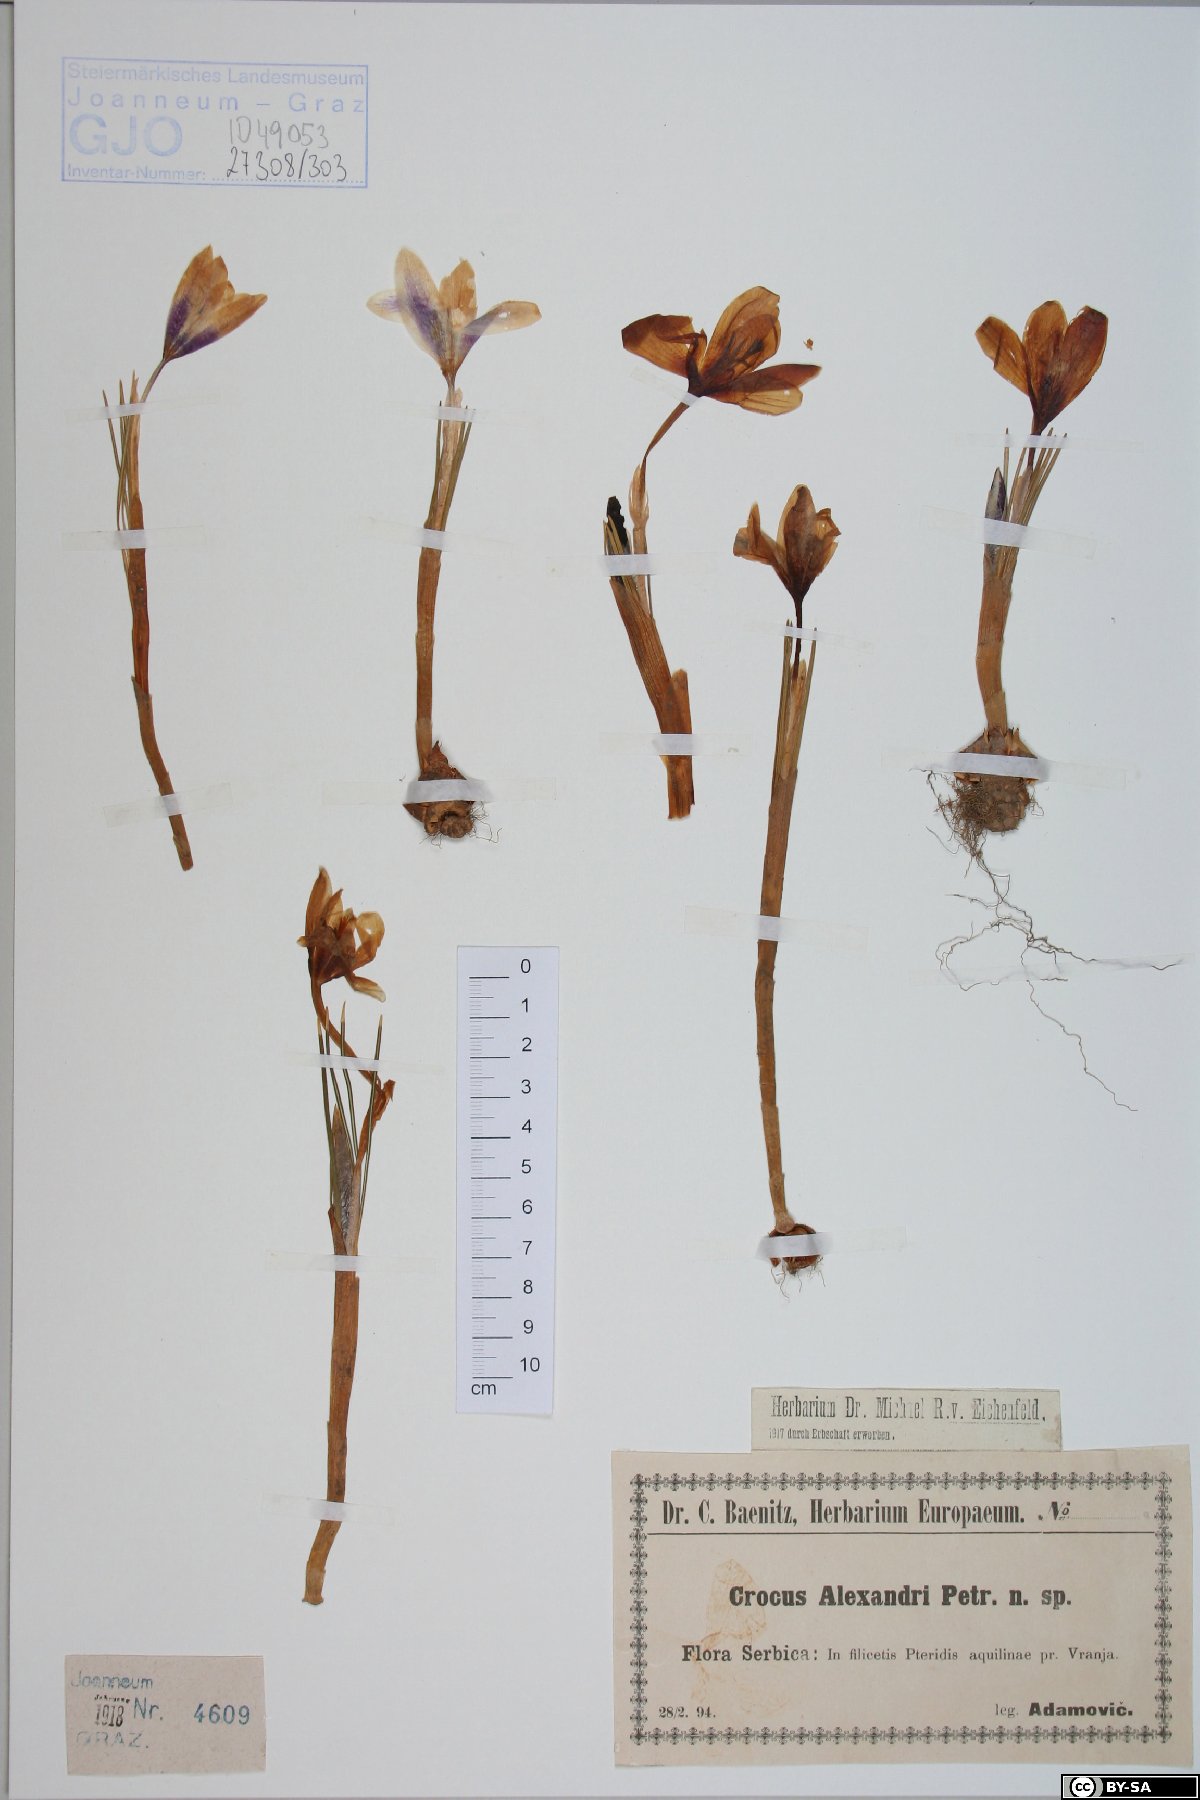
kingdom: Plantae
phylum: Tracheophyta
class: Liliopsida
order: Asparagales
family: Iridaceae
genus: Crocus
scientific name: Crocus alexandri
